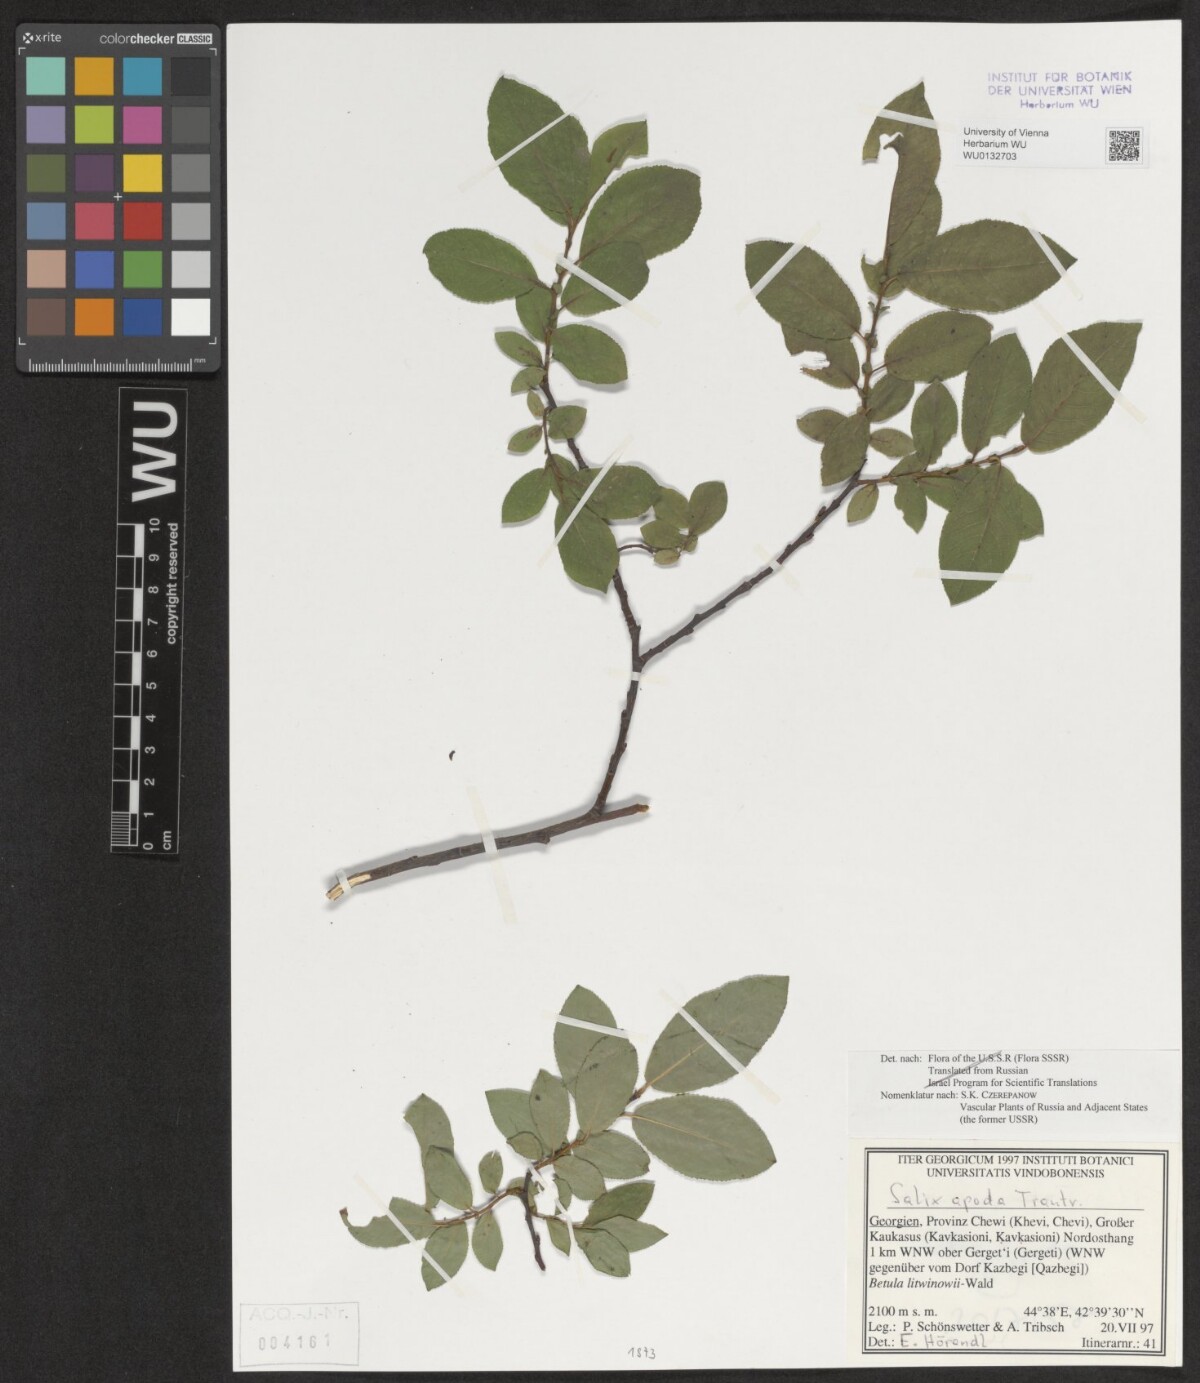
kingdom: Plantae
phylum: Tracheophyta
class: Magnoliopsida
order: Malpighiales
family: Salicaceae
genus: Salix
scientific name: Salix apoda
